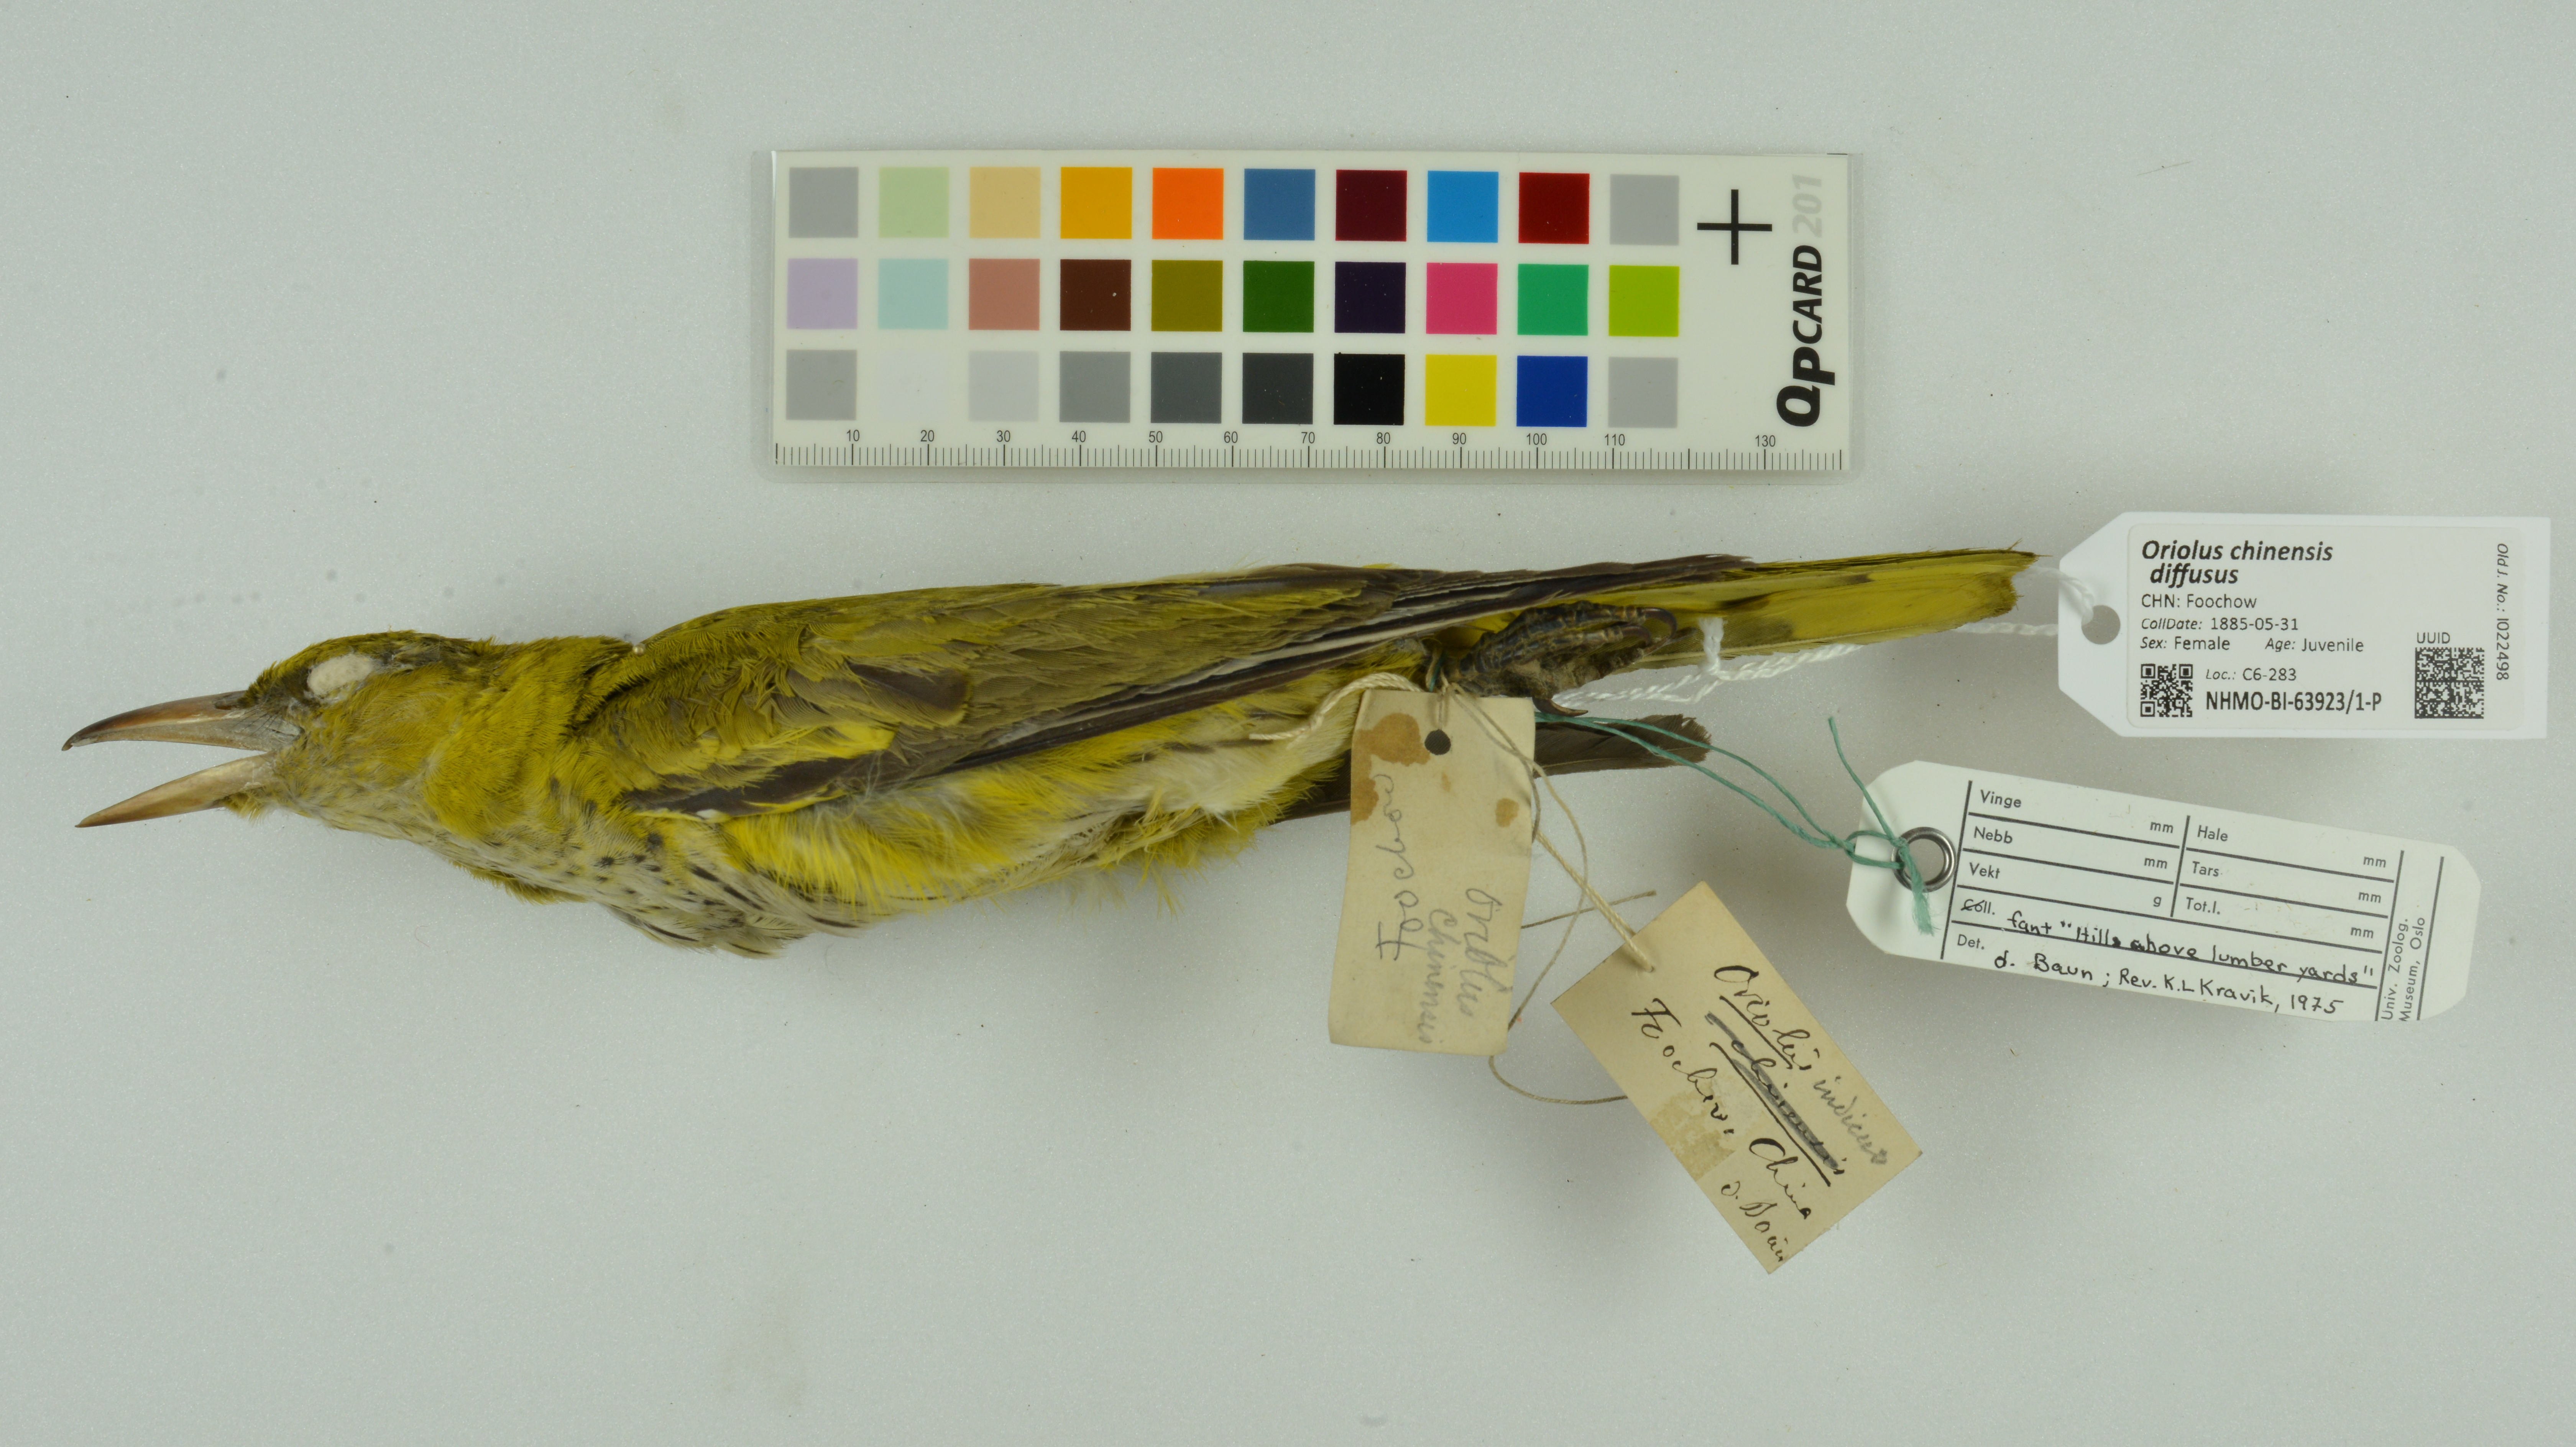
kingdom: Animalia
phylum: Chordata
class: Aves
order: Passeriformes
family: Oriolidae
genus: Oriolus
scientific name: Oriolus chinensis
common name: Black-naped oriole
